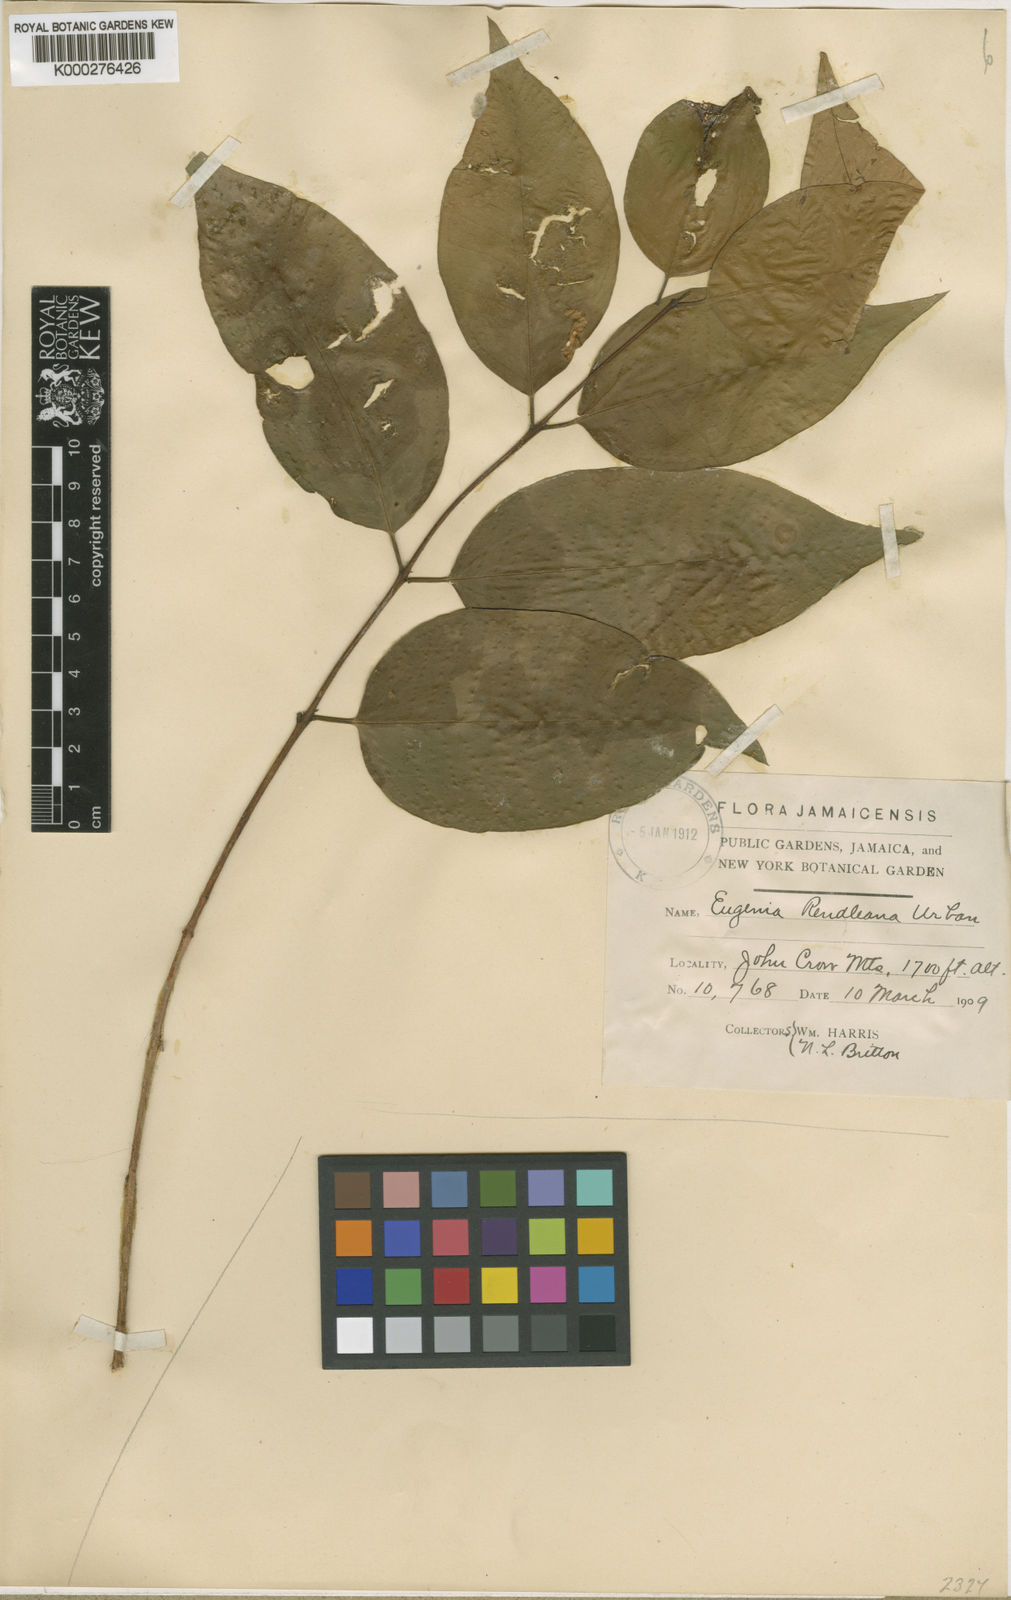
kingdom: Plantae
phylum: Tracheophyta
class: Magnoliopsida
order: Myrtales
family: Myrtaceae
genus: Eugenia
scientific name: Eugenia rendlei
